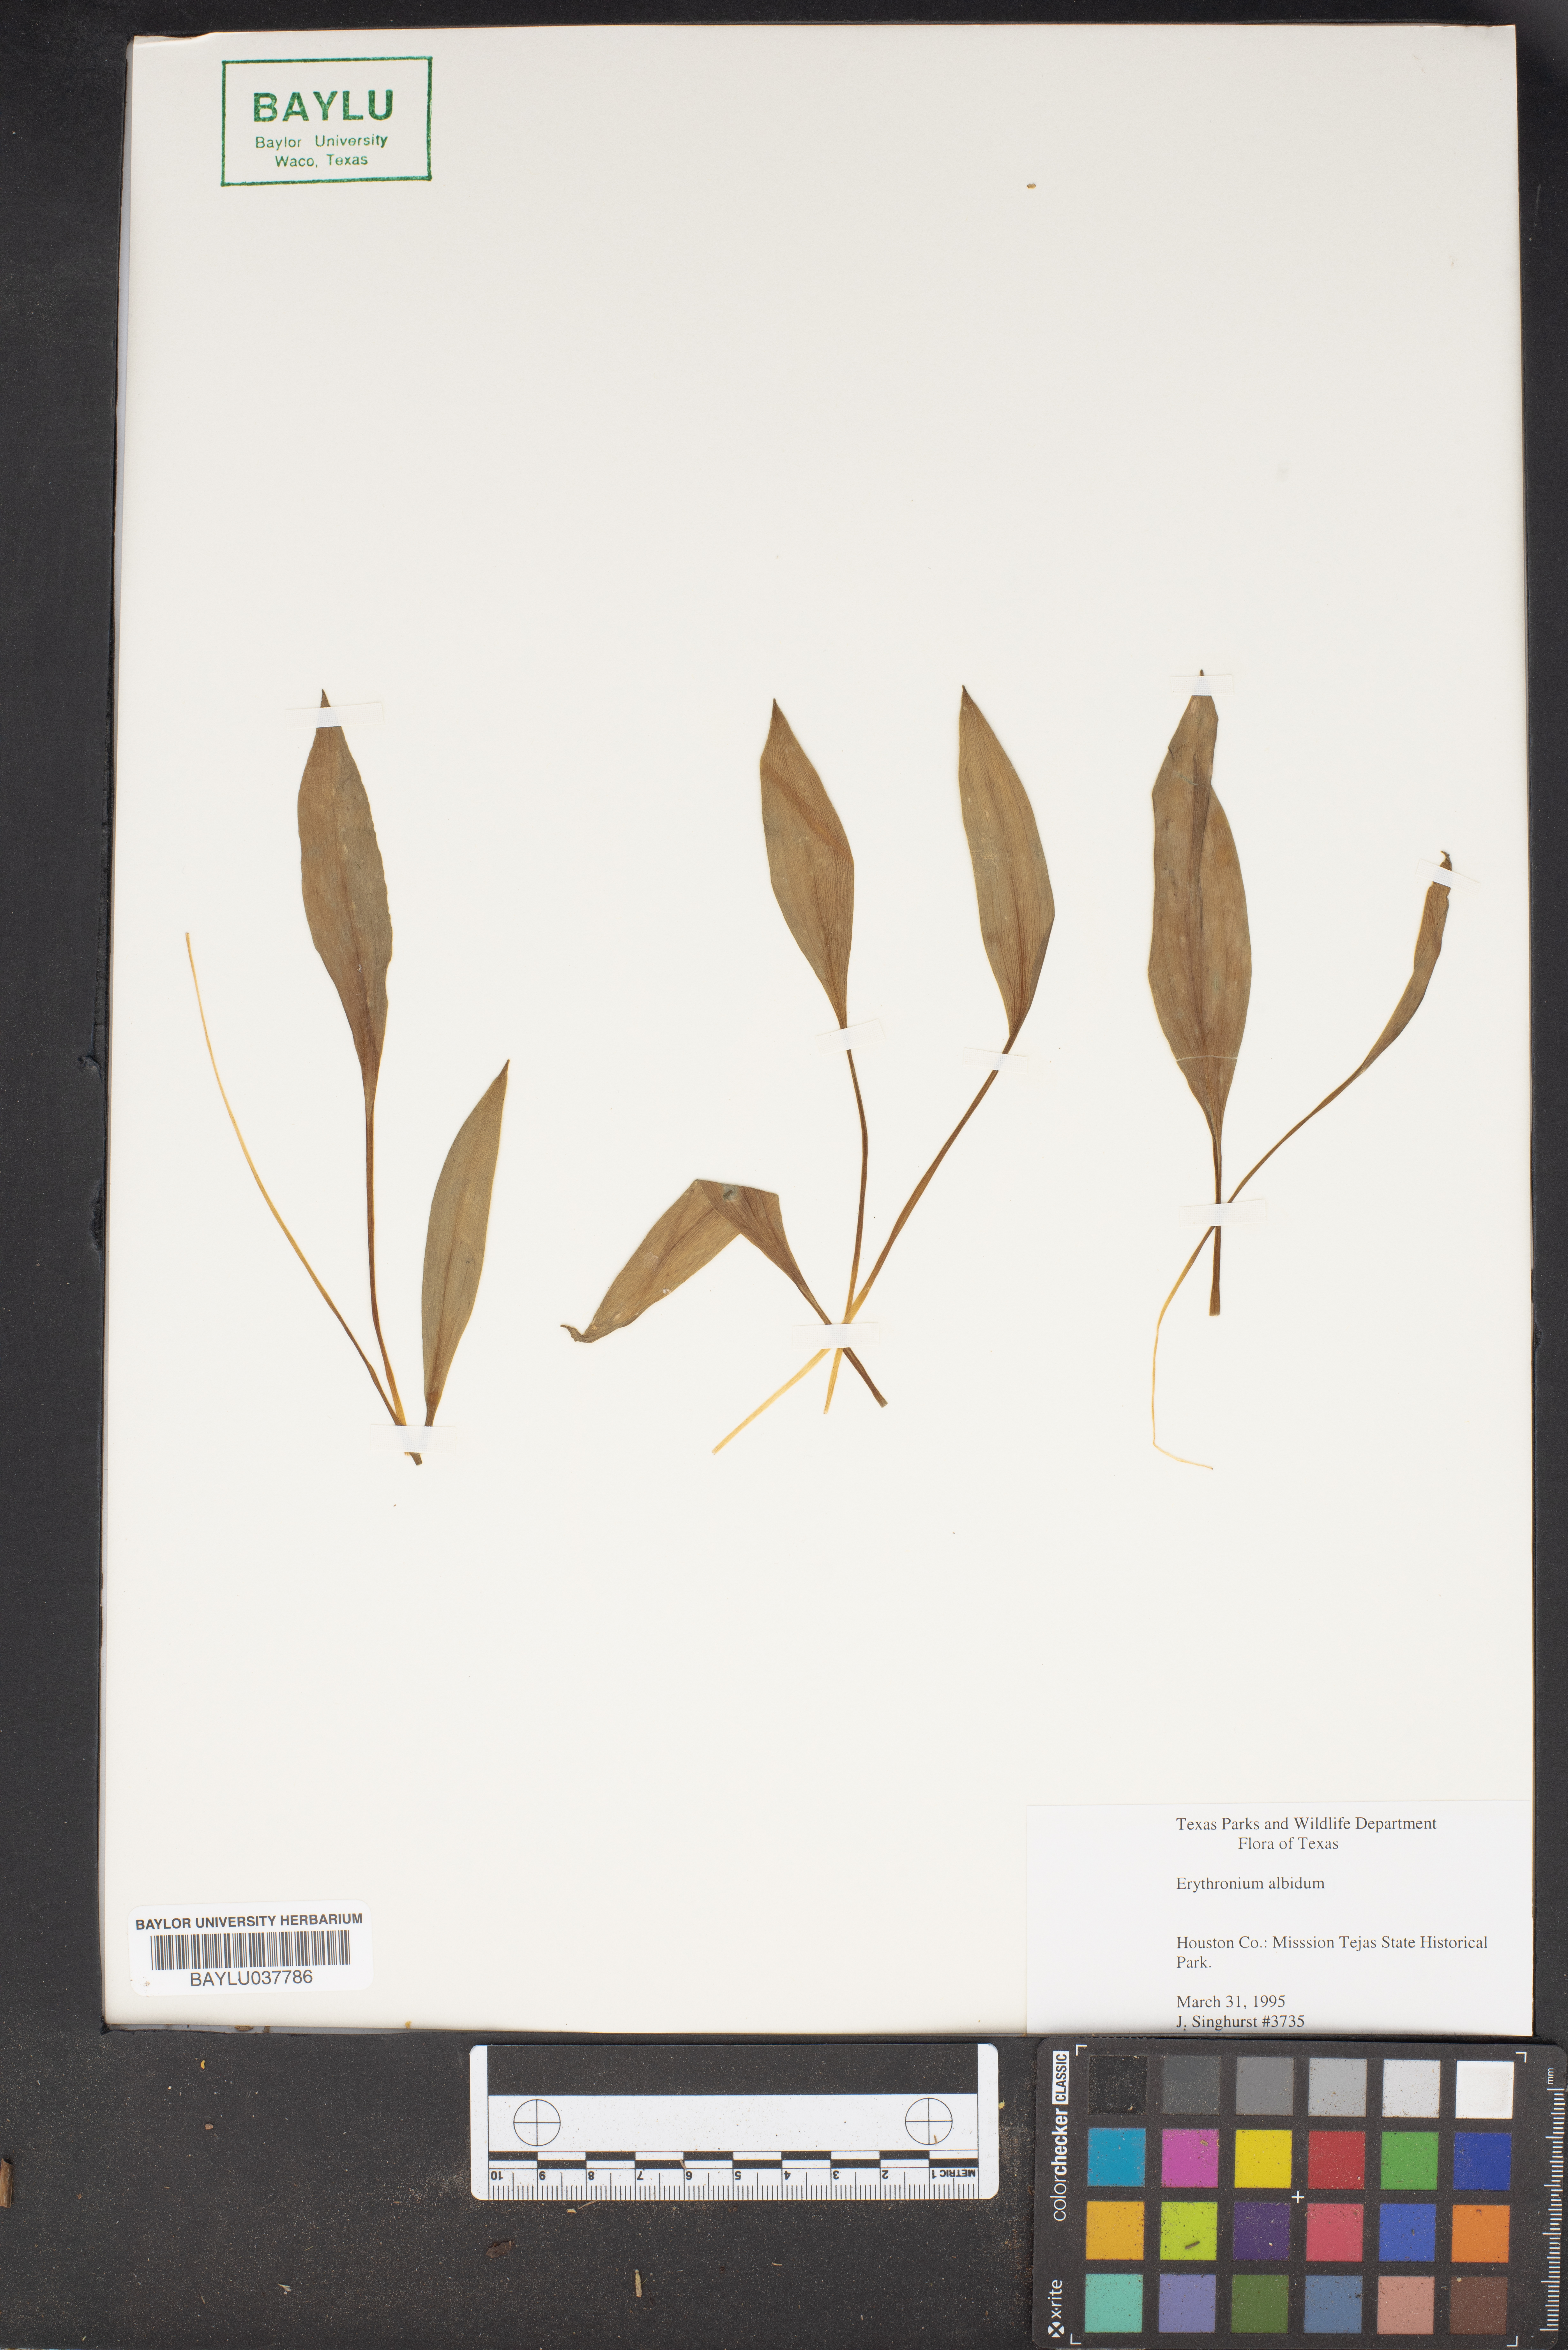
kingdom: Plantae
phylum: Tracheophyta
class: Liliopsida
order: Liliales
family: Liliaceae
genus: Erythronium
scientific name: Erythronium albidum
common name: White trout-lily
